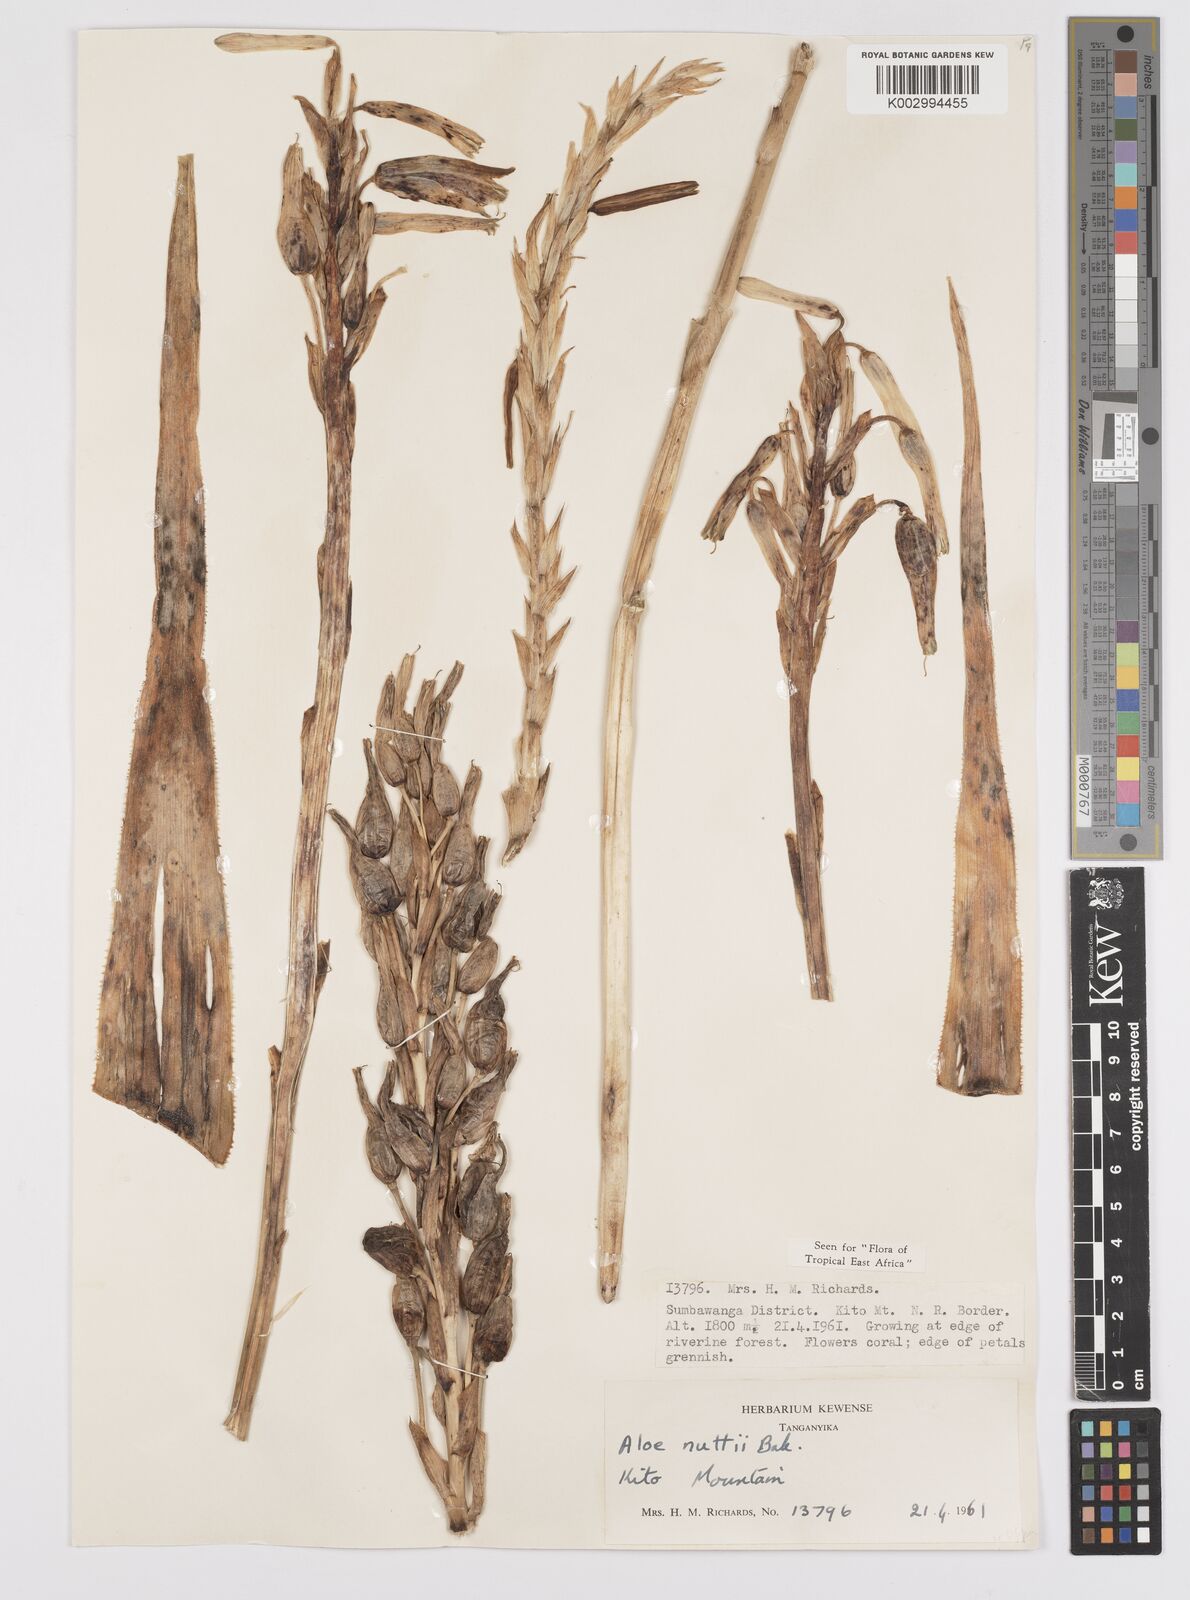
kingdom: Plantae
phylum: Tracheophyta
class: Liliopsida
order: Asparagales
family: Asphodelaceae
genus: Aloe
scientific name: Aloe nuttii
